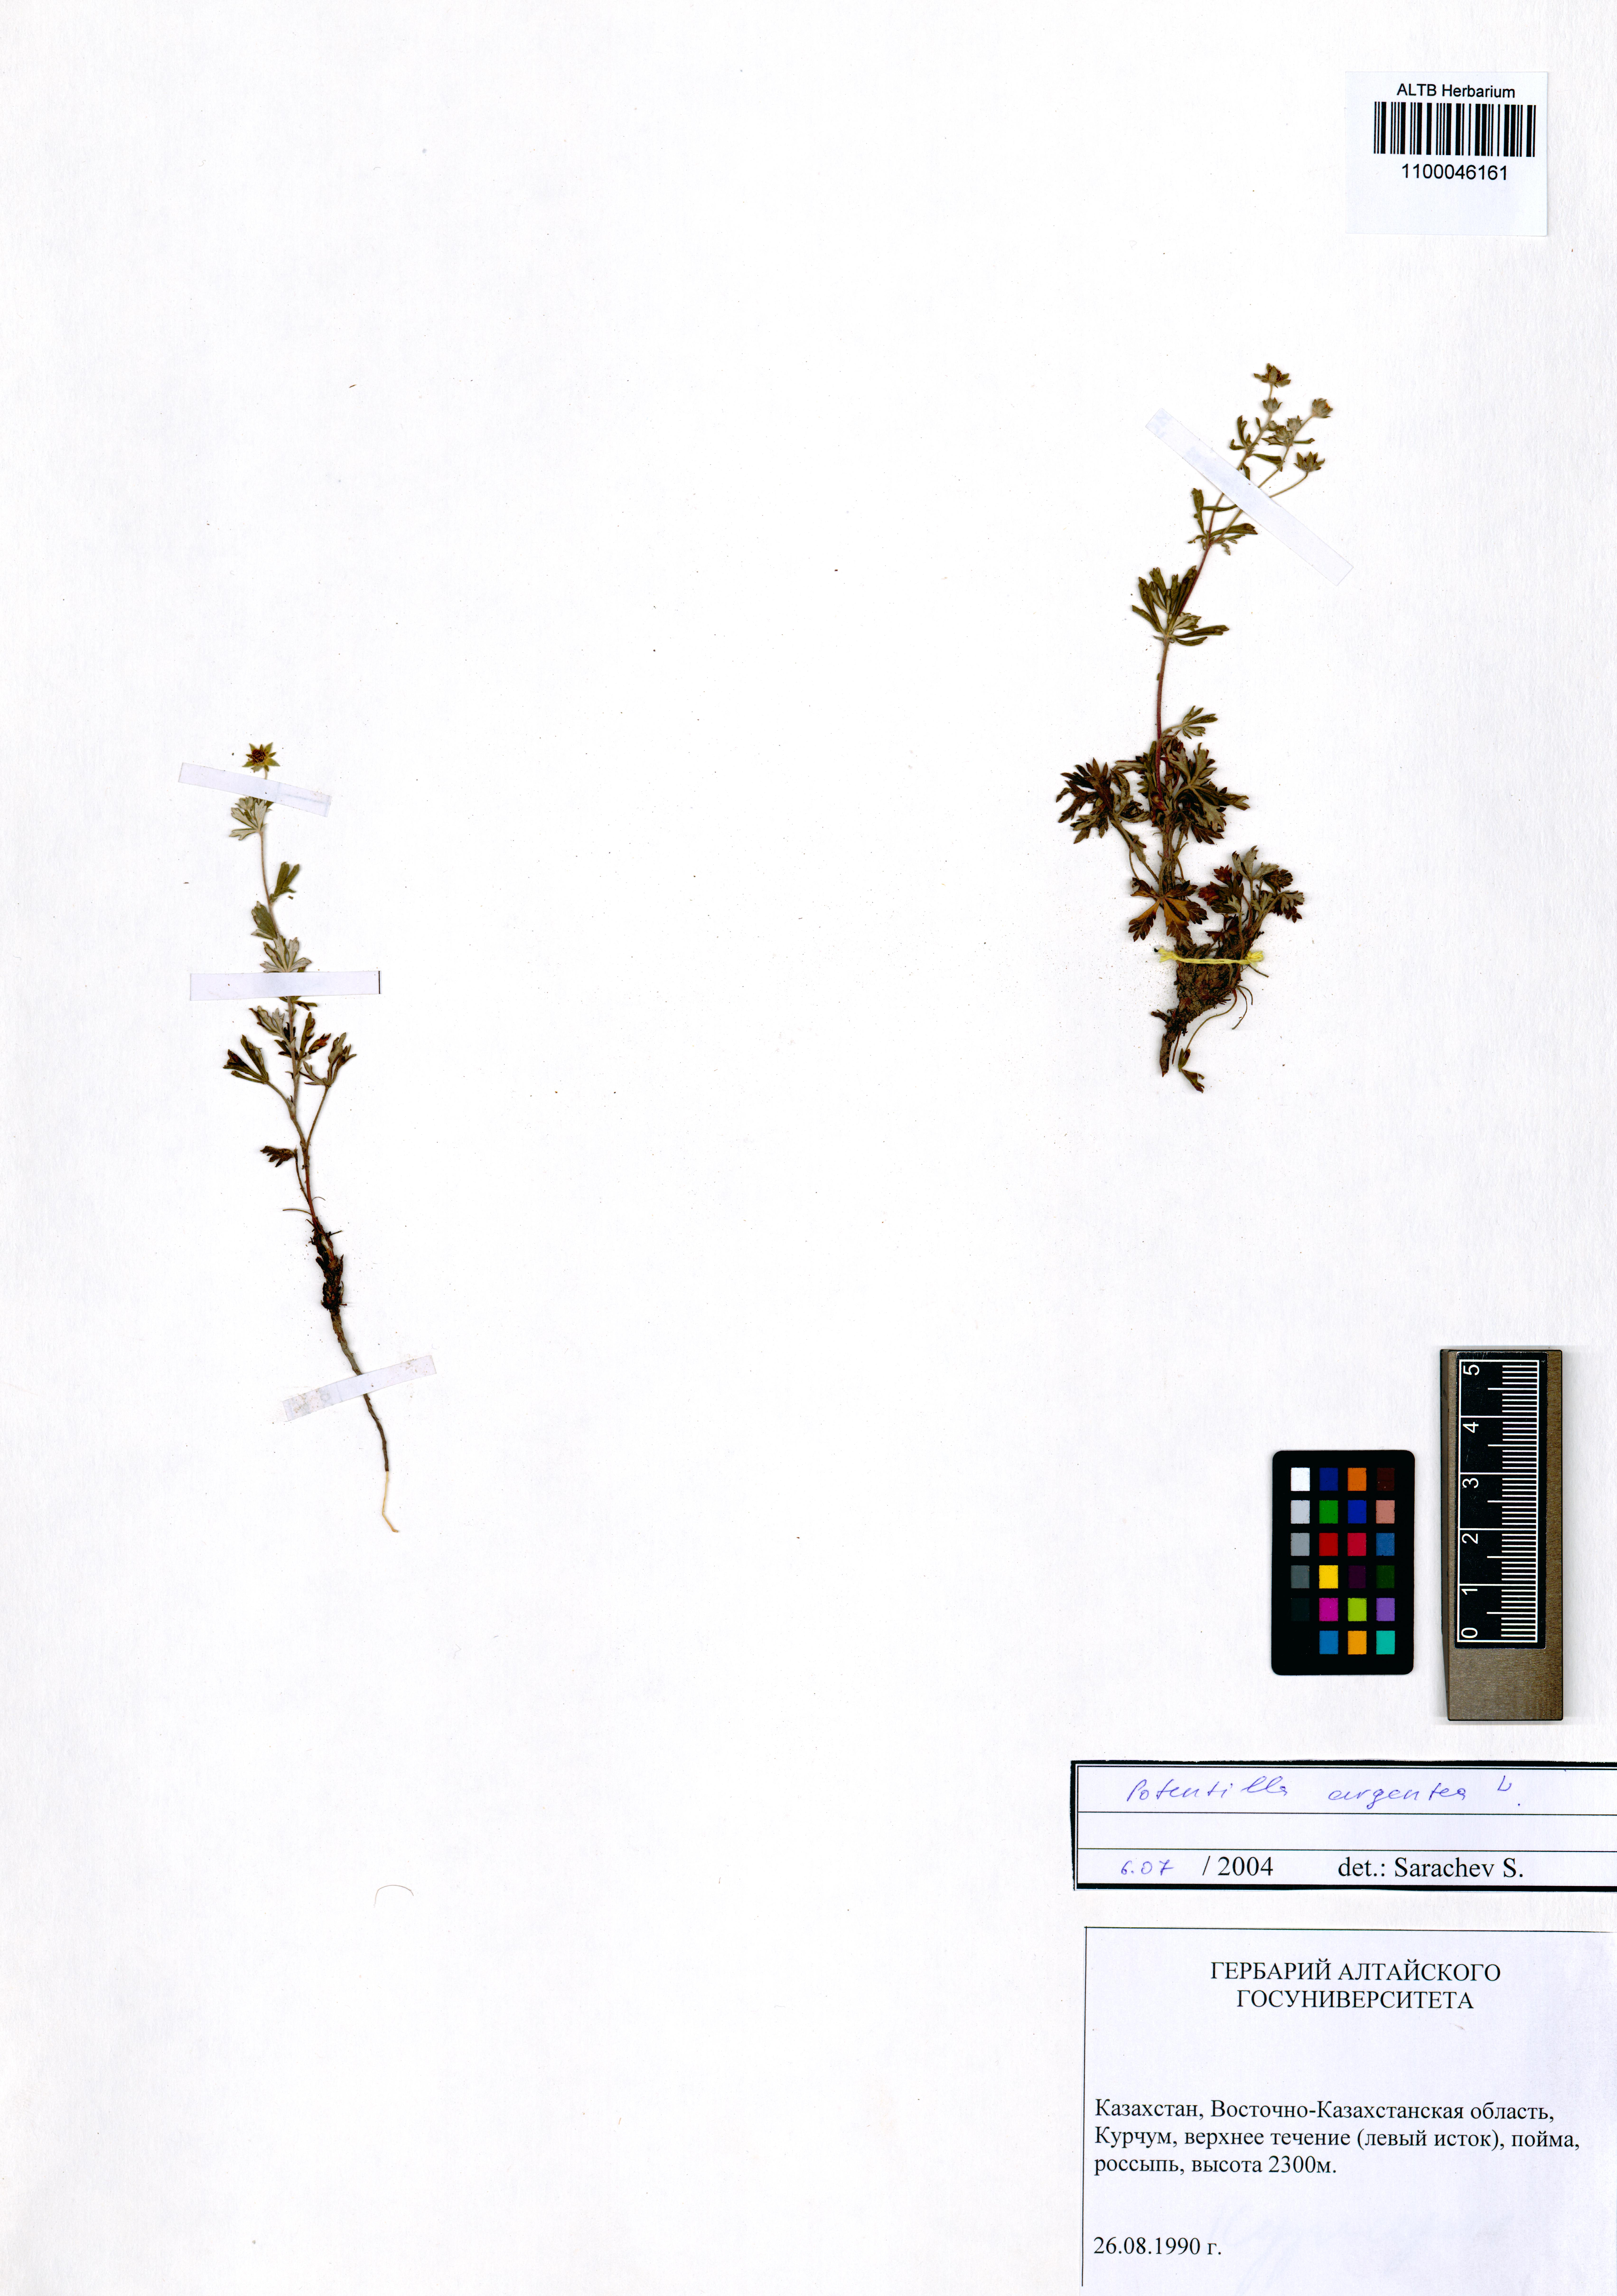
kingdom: Plantae
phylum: Tracheophyta
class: Magnoliopsida
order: Rosales
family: Rosaceae
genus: Potentilla
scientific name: Potentilla argentea
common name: Hoary cinquefoil
